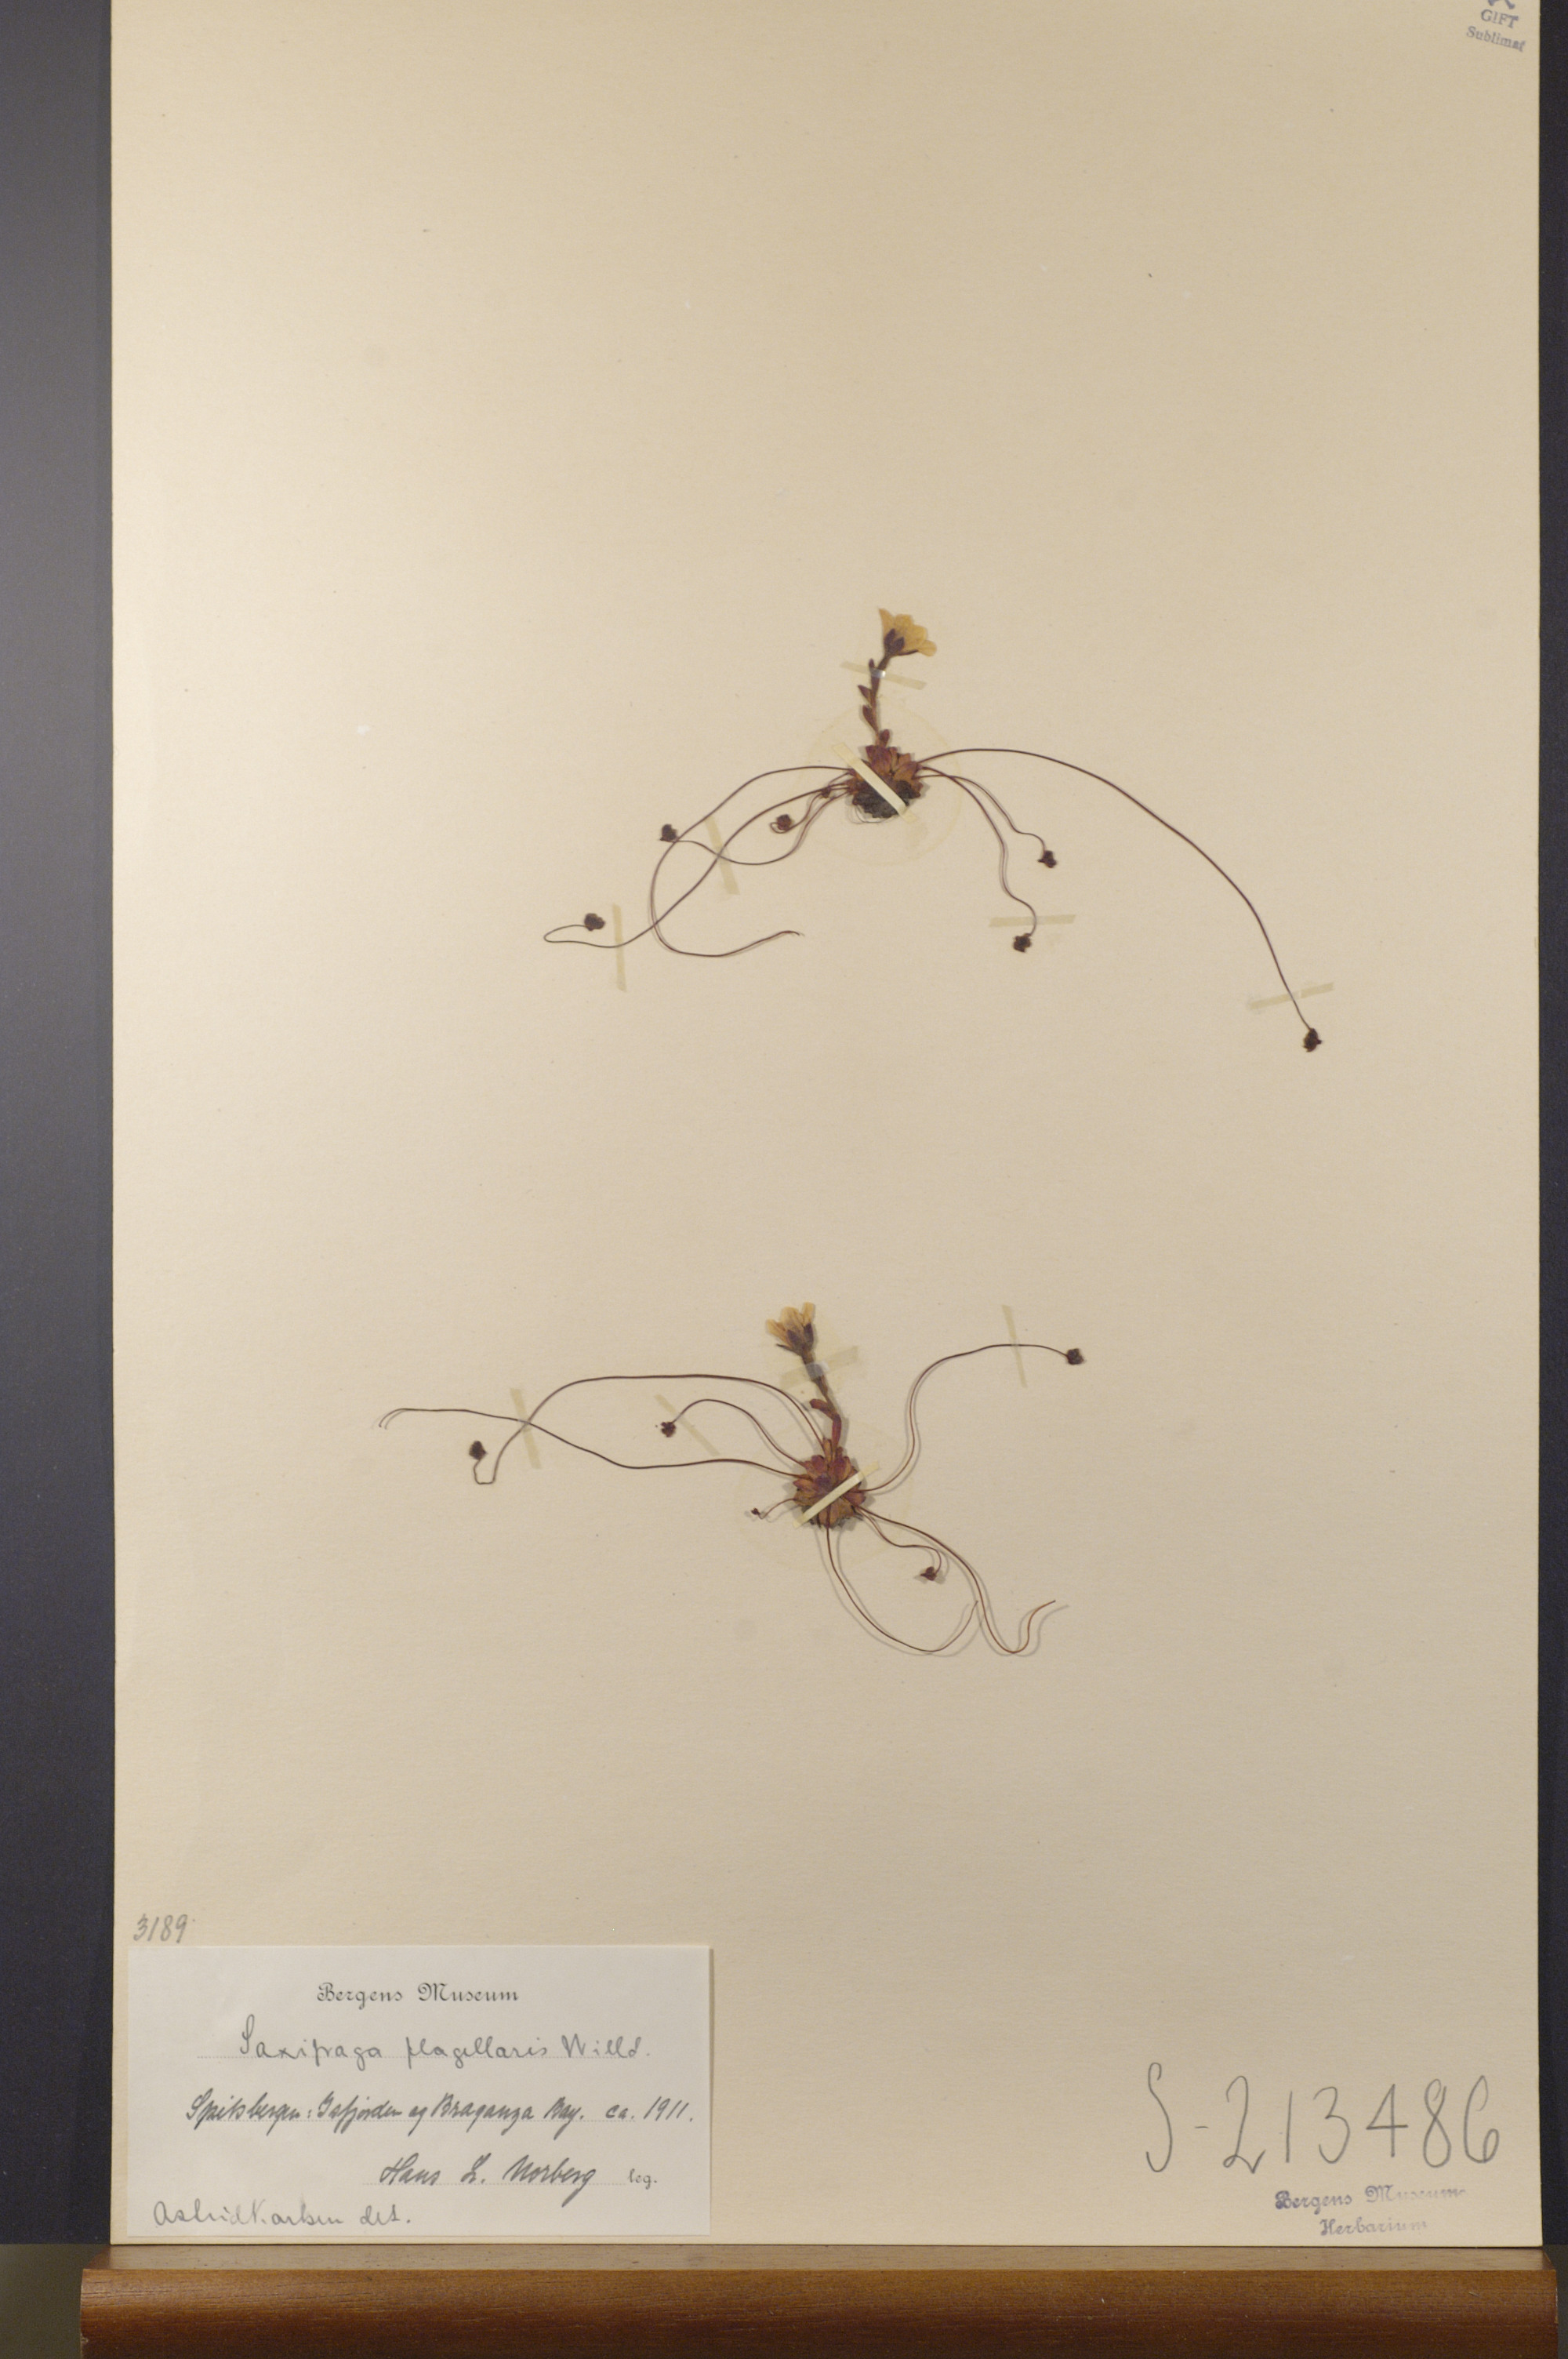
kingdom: Plantae
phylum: Tracheophyta
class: Magnoliopsida
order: Saxifragales
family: Saxifragaceae
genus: Saxifraga
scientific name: Saxifraga flagellaris
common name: Spider saxifrage
